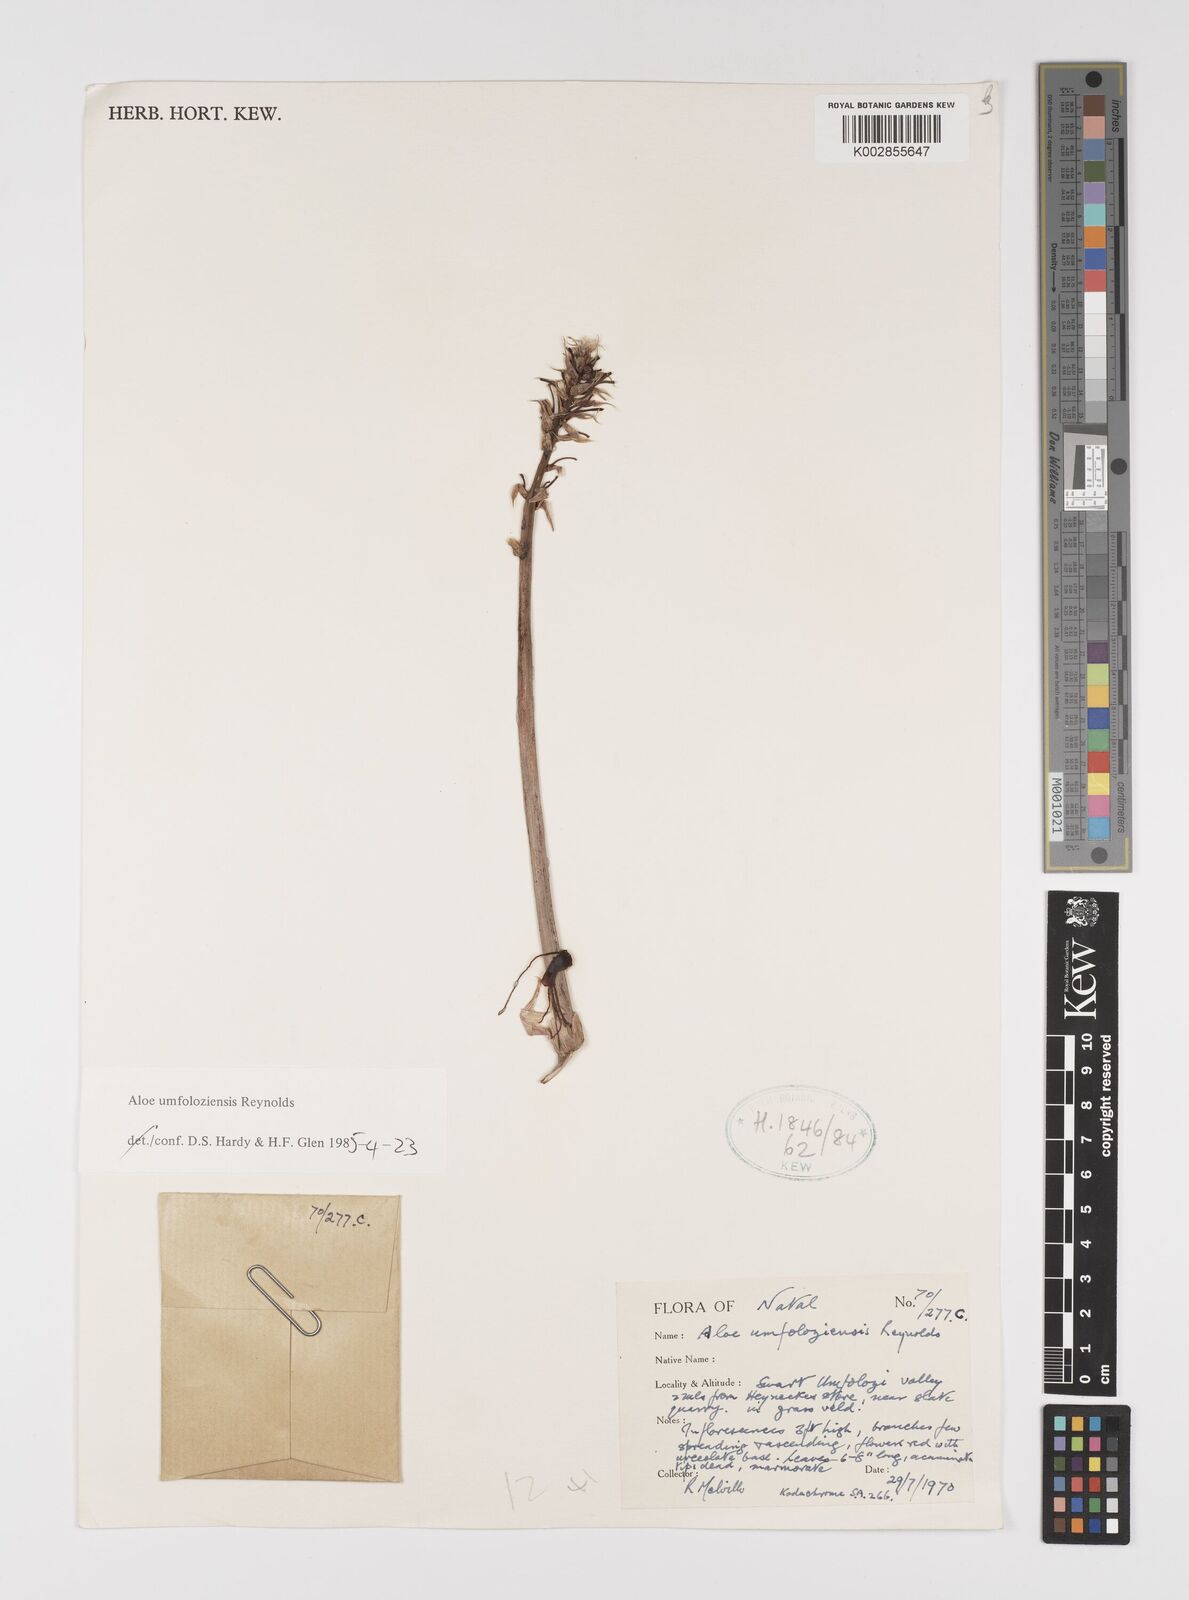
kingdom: Plantae
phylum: Tracheophyta
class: Liliopsida
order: Asparagales
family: Asphodelaceae
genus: Aloe
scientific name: Aloe umfoloziensis
